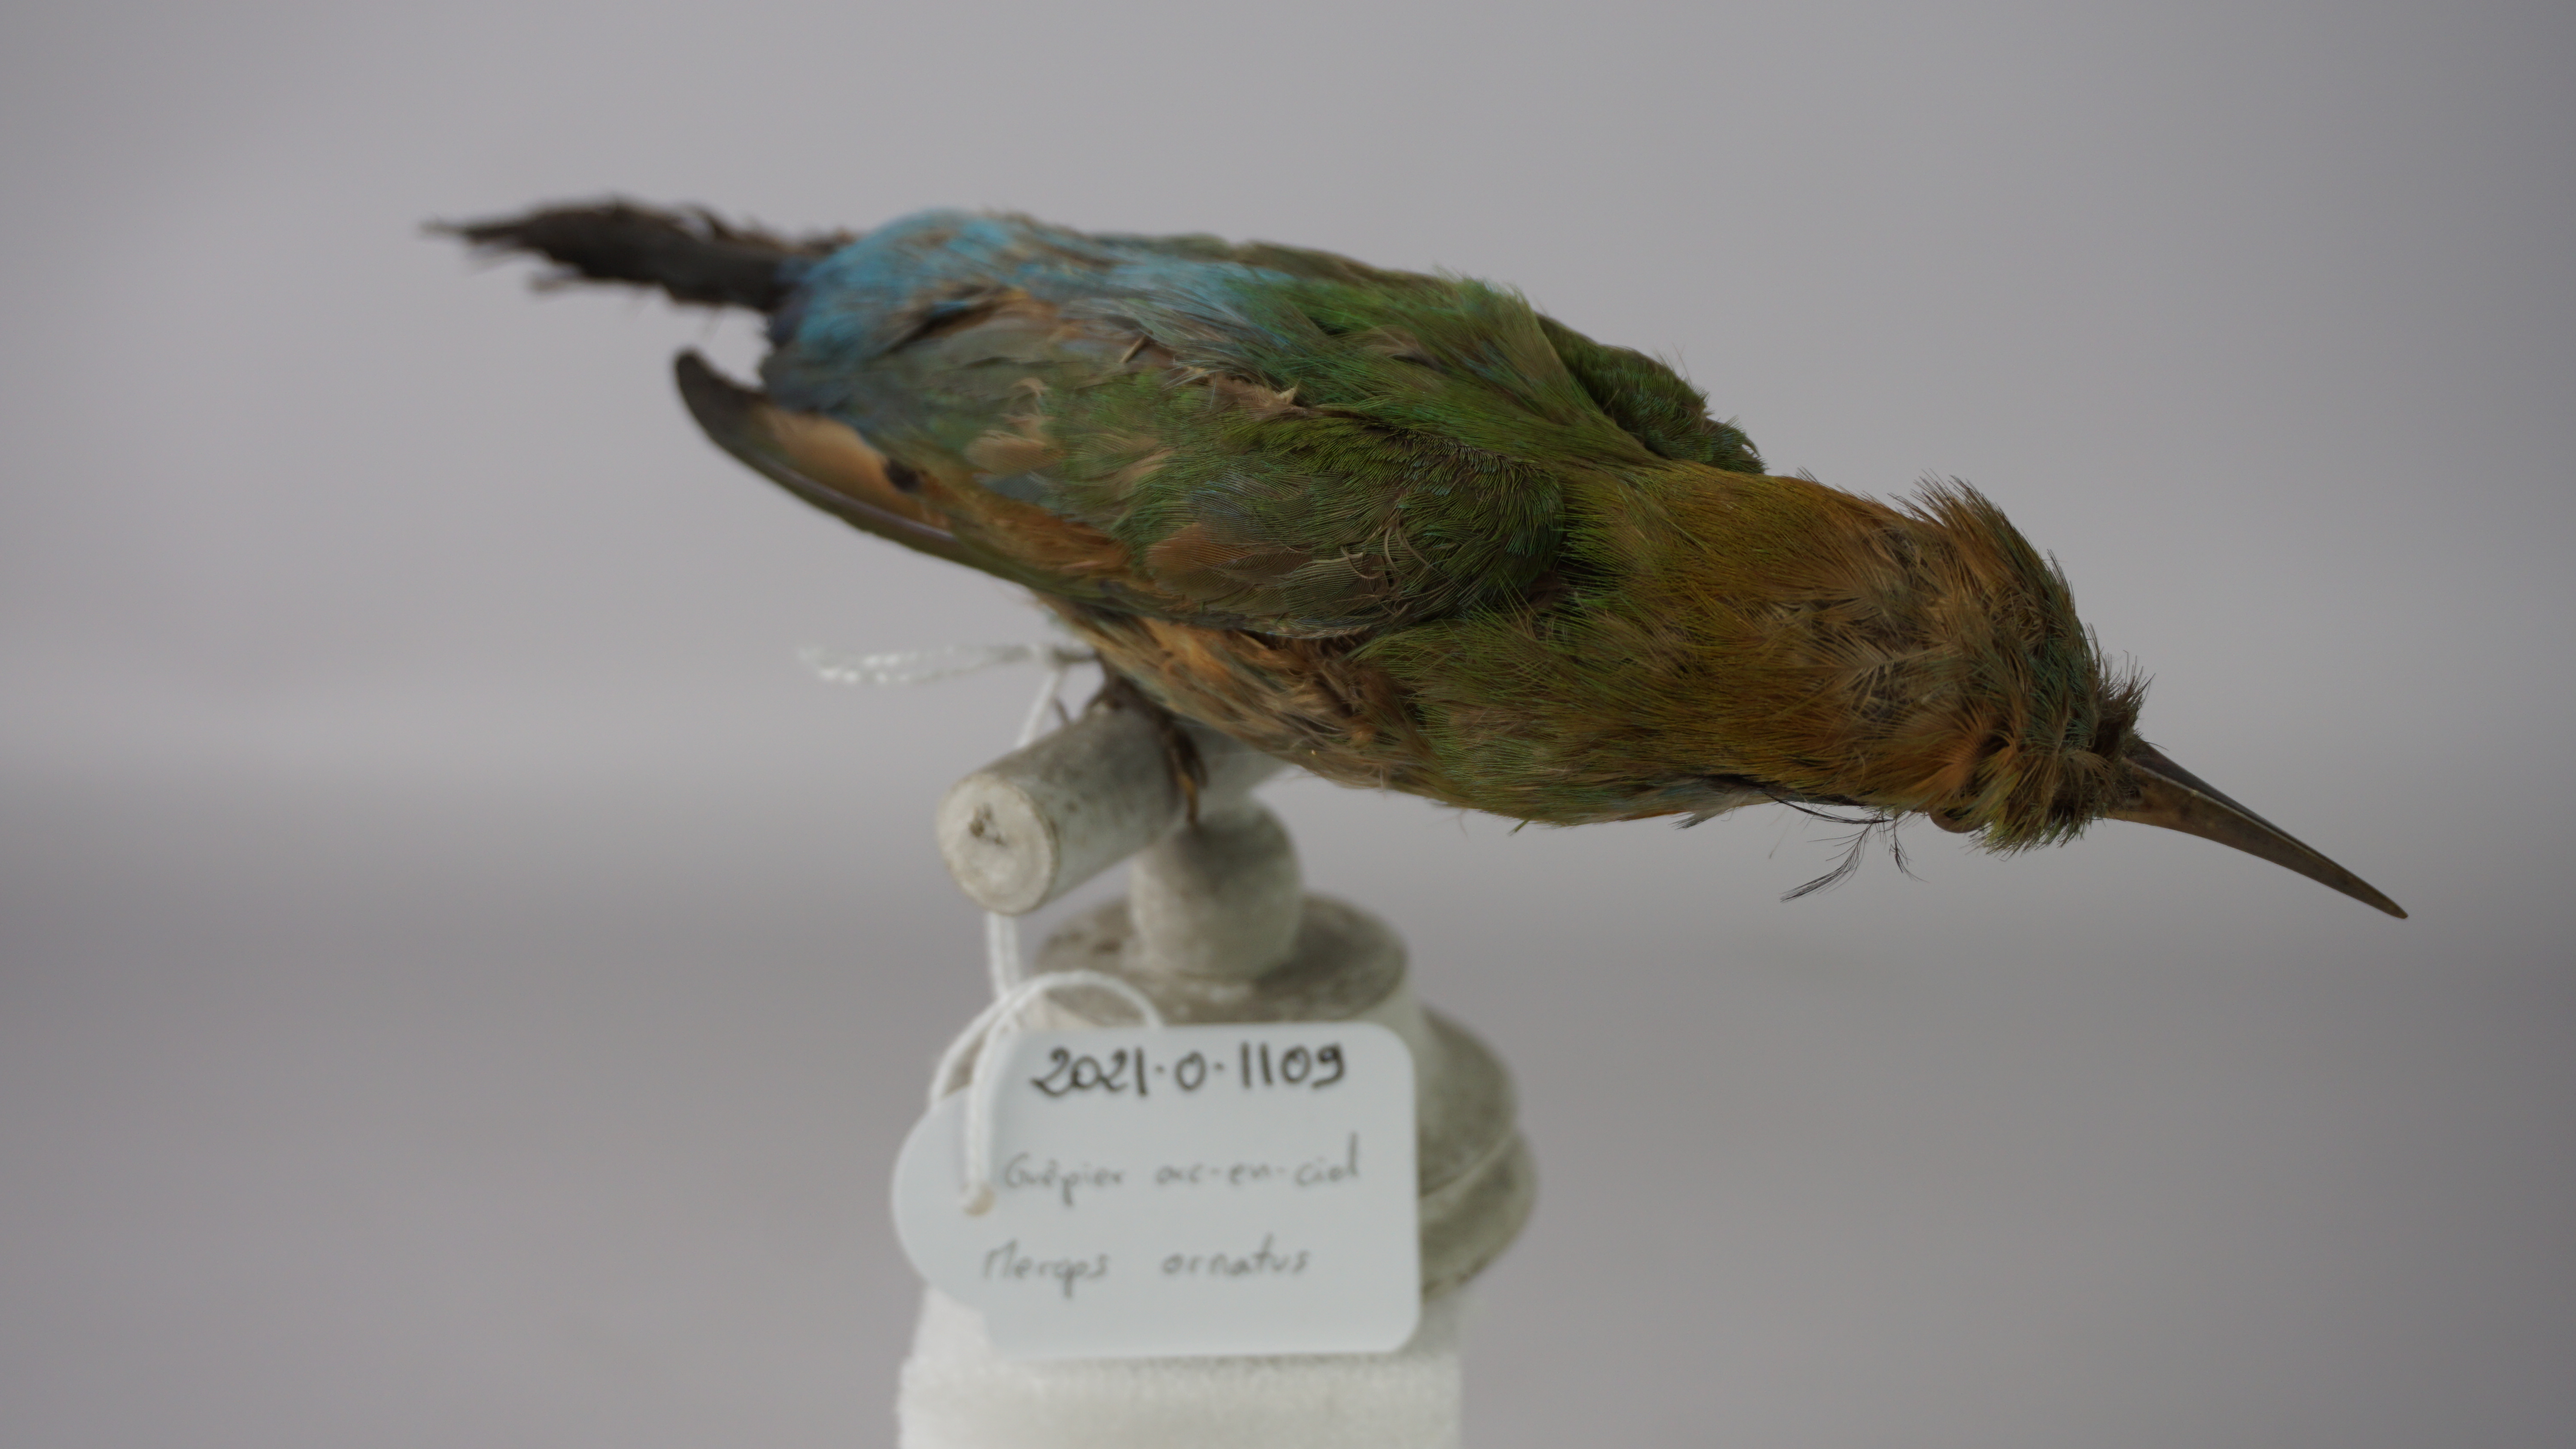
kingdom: Animalia
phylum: Chordata
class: Aves
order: Coraciiformes
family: Meropidae
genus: Merops
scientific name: Merops ornatus
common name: Rainbow bee-eater
